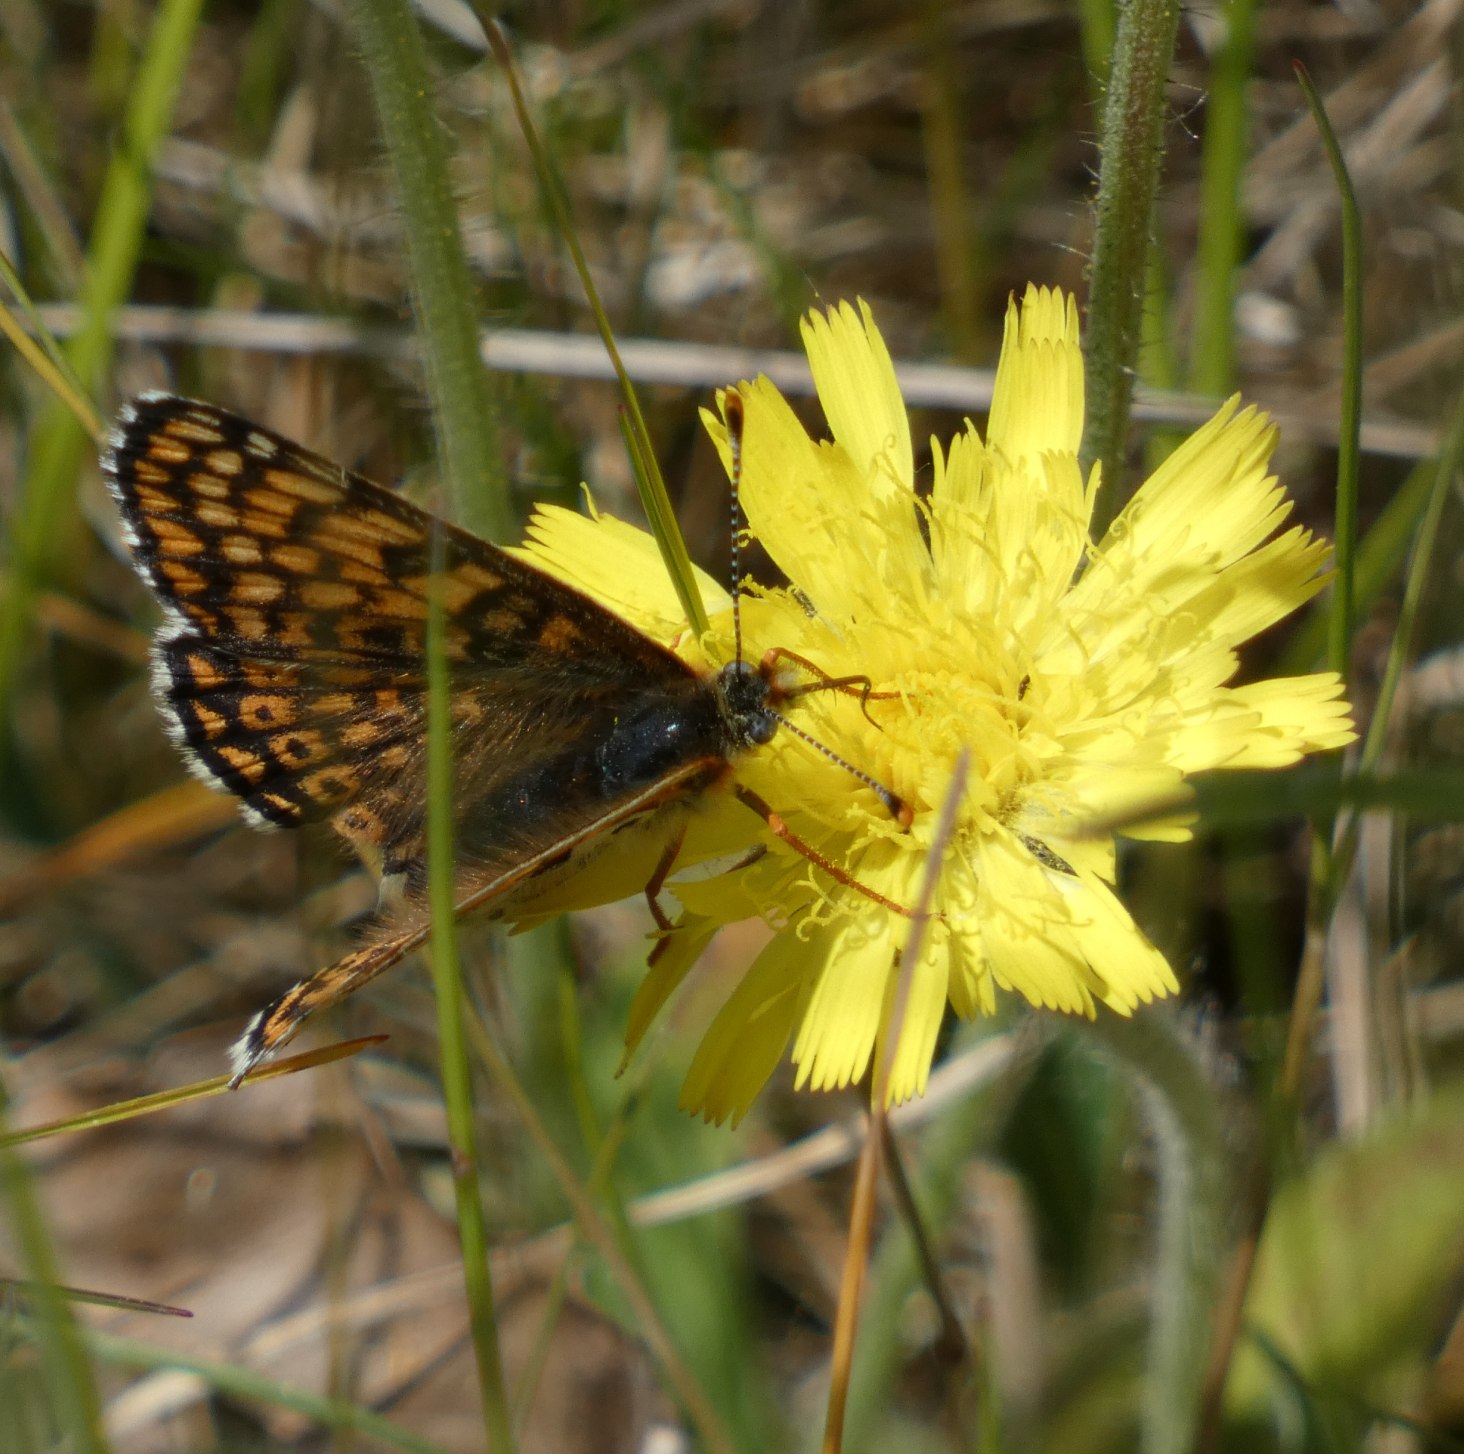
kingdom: Animalia
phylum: Arthropoda
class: Insecta
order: Lepidoptera
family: Nymphalidae
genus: Melitaea
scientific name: Melitaea cinxia
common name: Okkergul pletvinge
